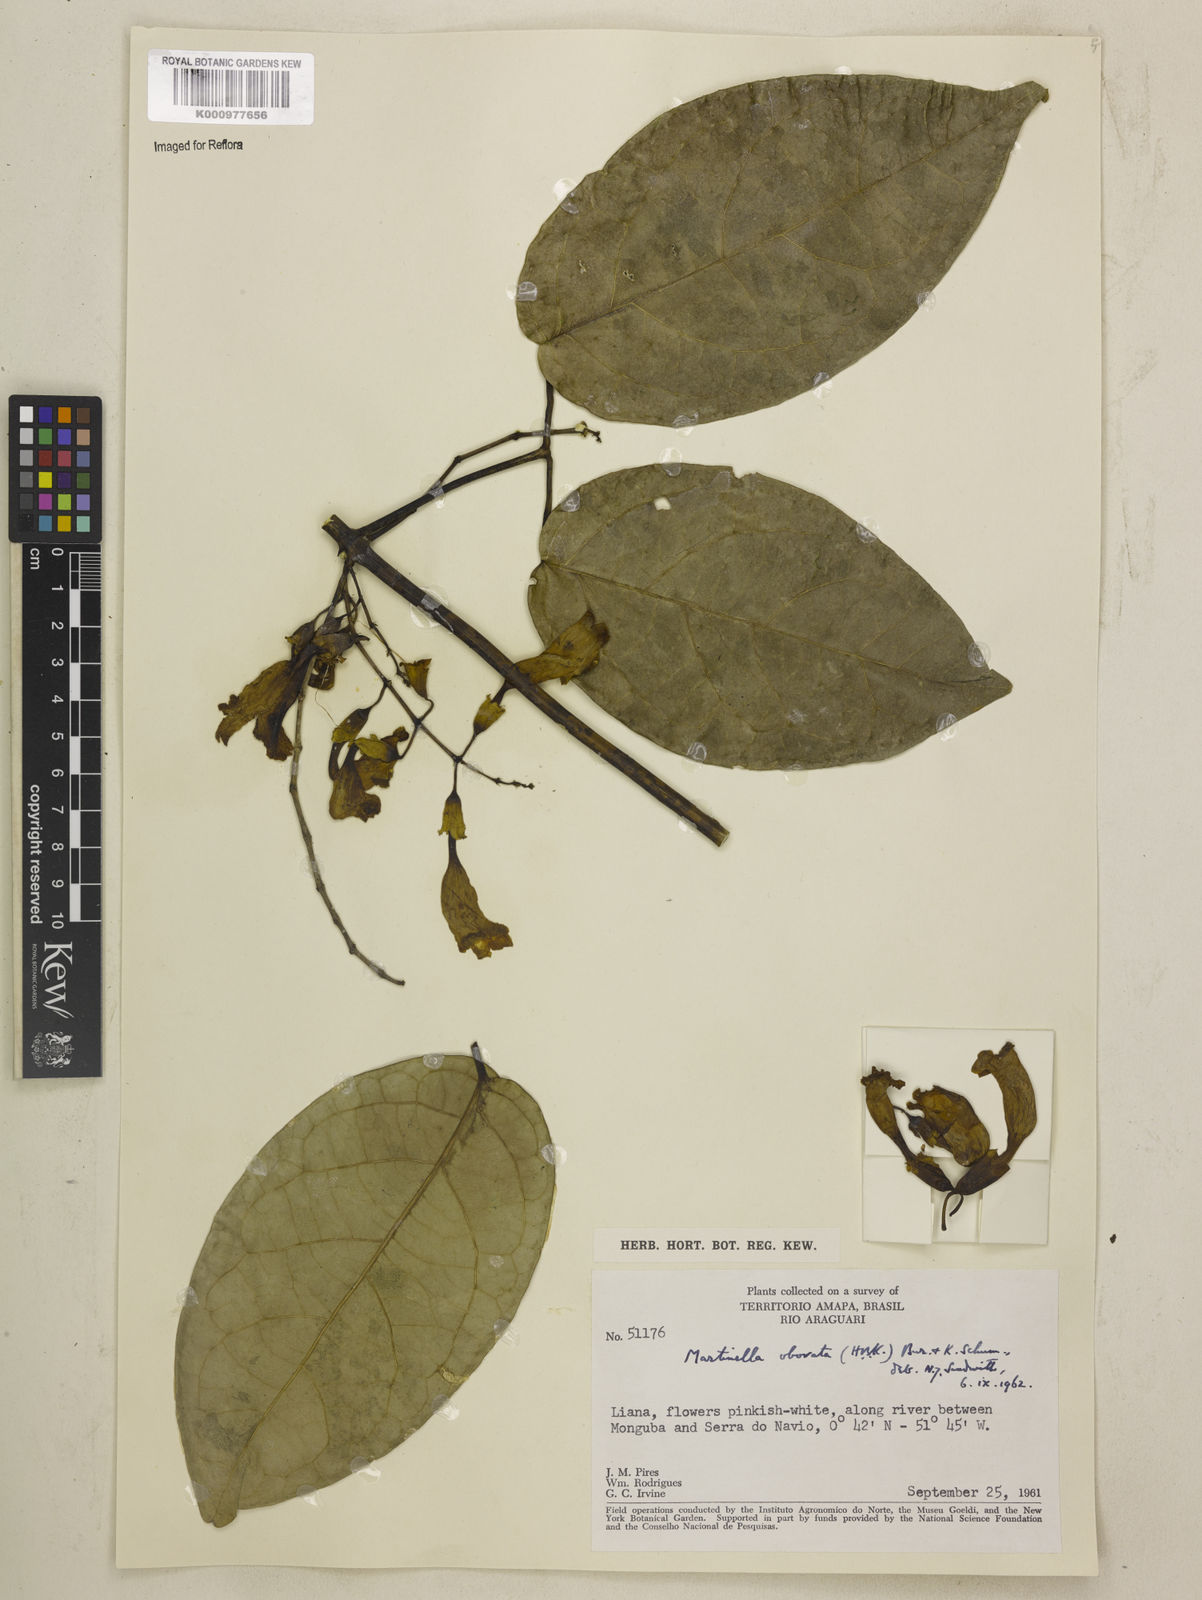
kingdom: Animalia
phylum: Arthropoda
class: Insecta
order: Coleoptera
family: Chrysomelidae
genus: Martinella
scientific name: Martinella obovata
